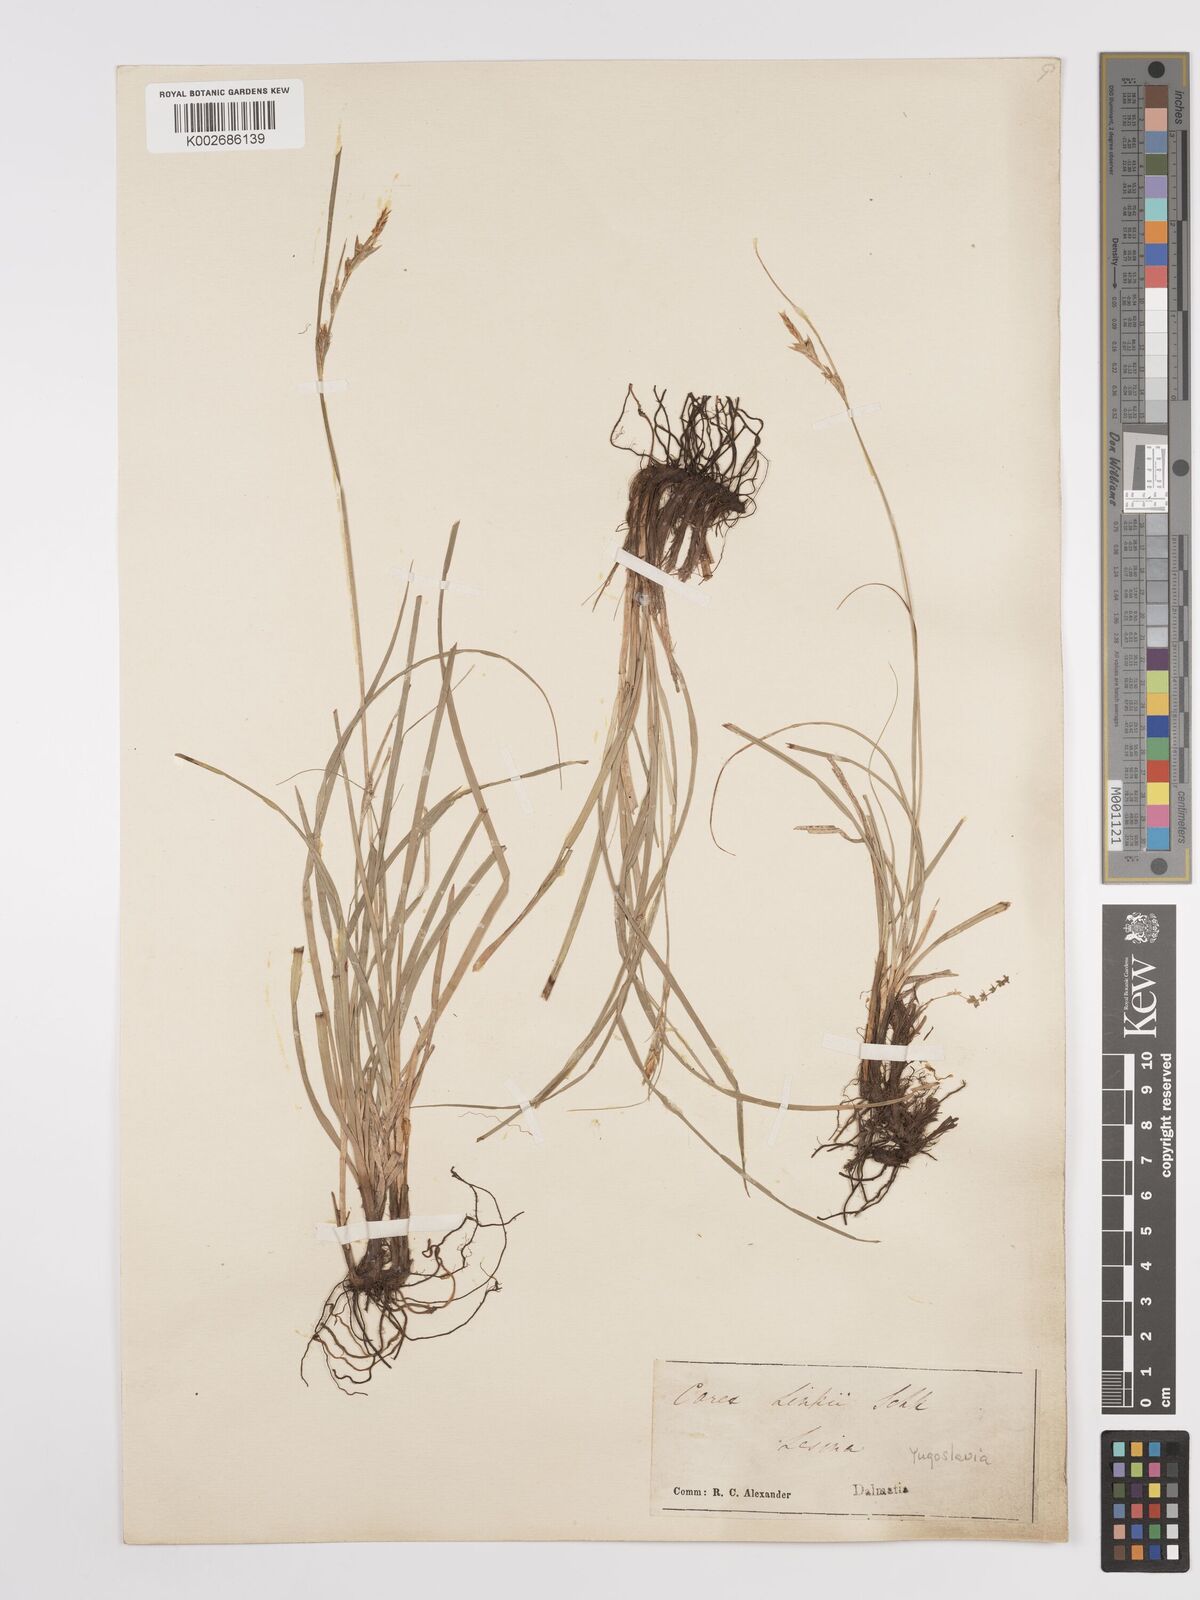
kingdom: Plantae
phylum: Tracheophyta
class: Liliopsida
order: Poales
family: Cyperaceae
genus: Carex
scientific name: Carex distachya
